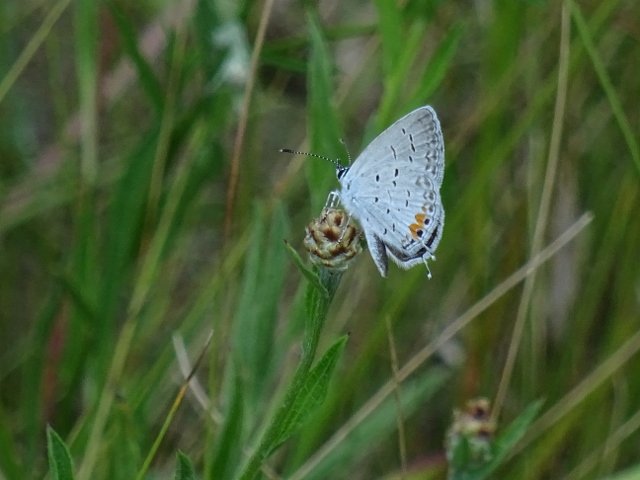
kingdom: Animalia
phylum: Arthropoda
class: Insecta
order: Lepidoptera
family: Lycaenidae
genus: Elkalyce
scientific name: Elkalyce comyntas
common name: Eastern Tailed-Blue
